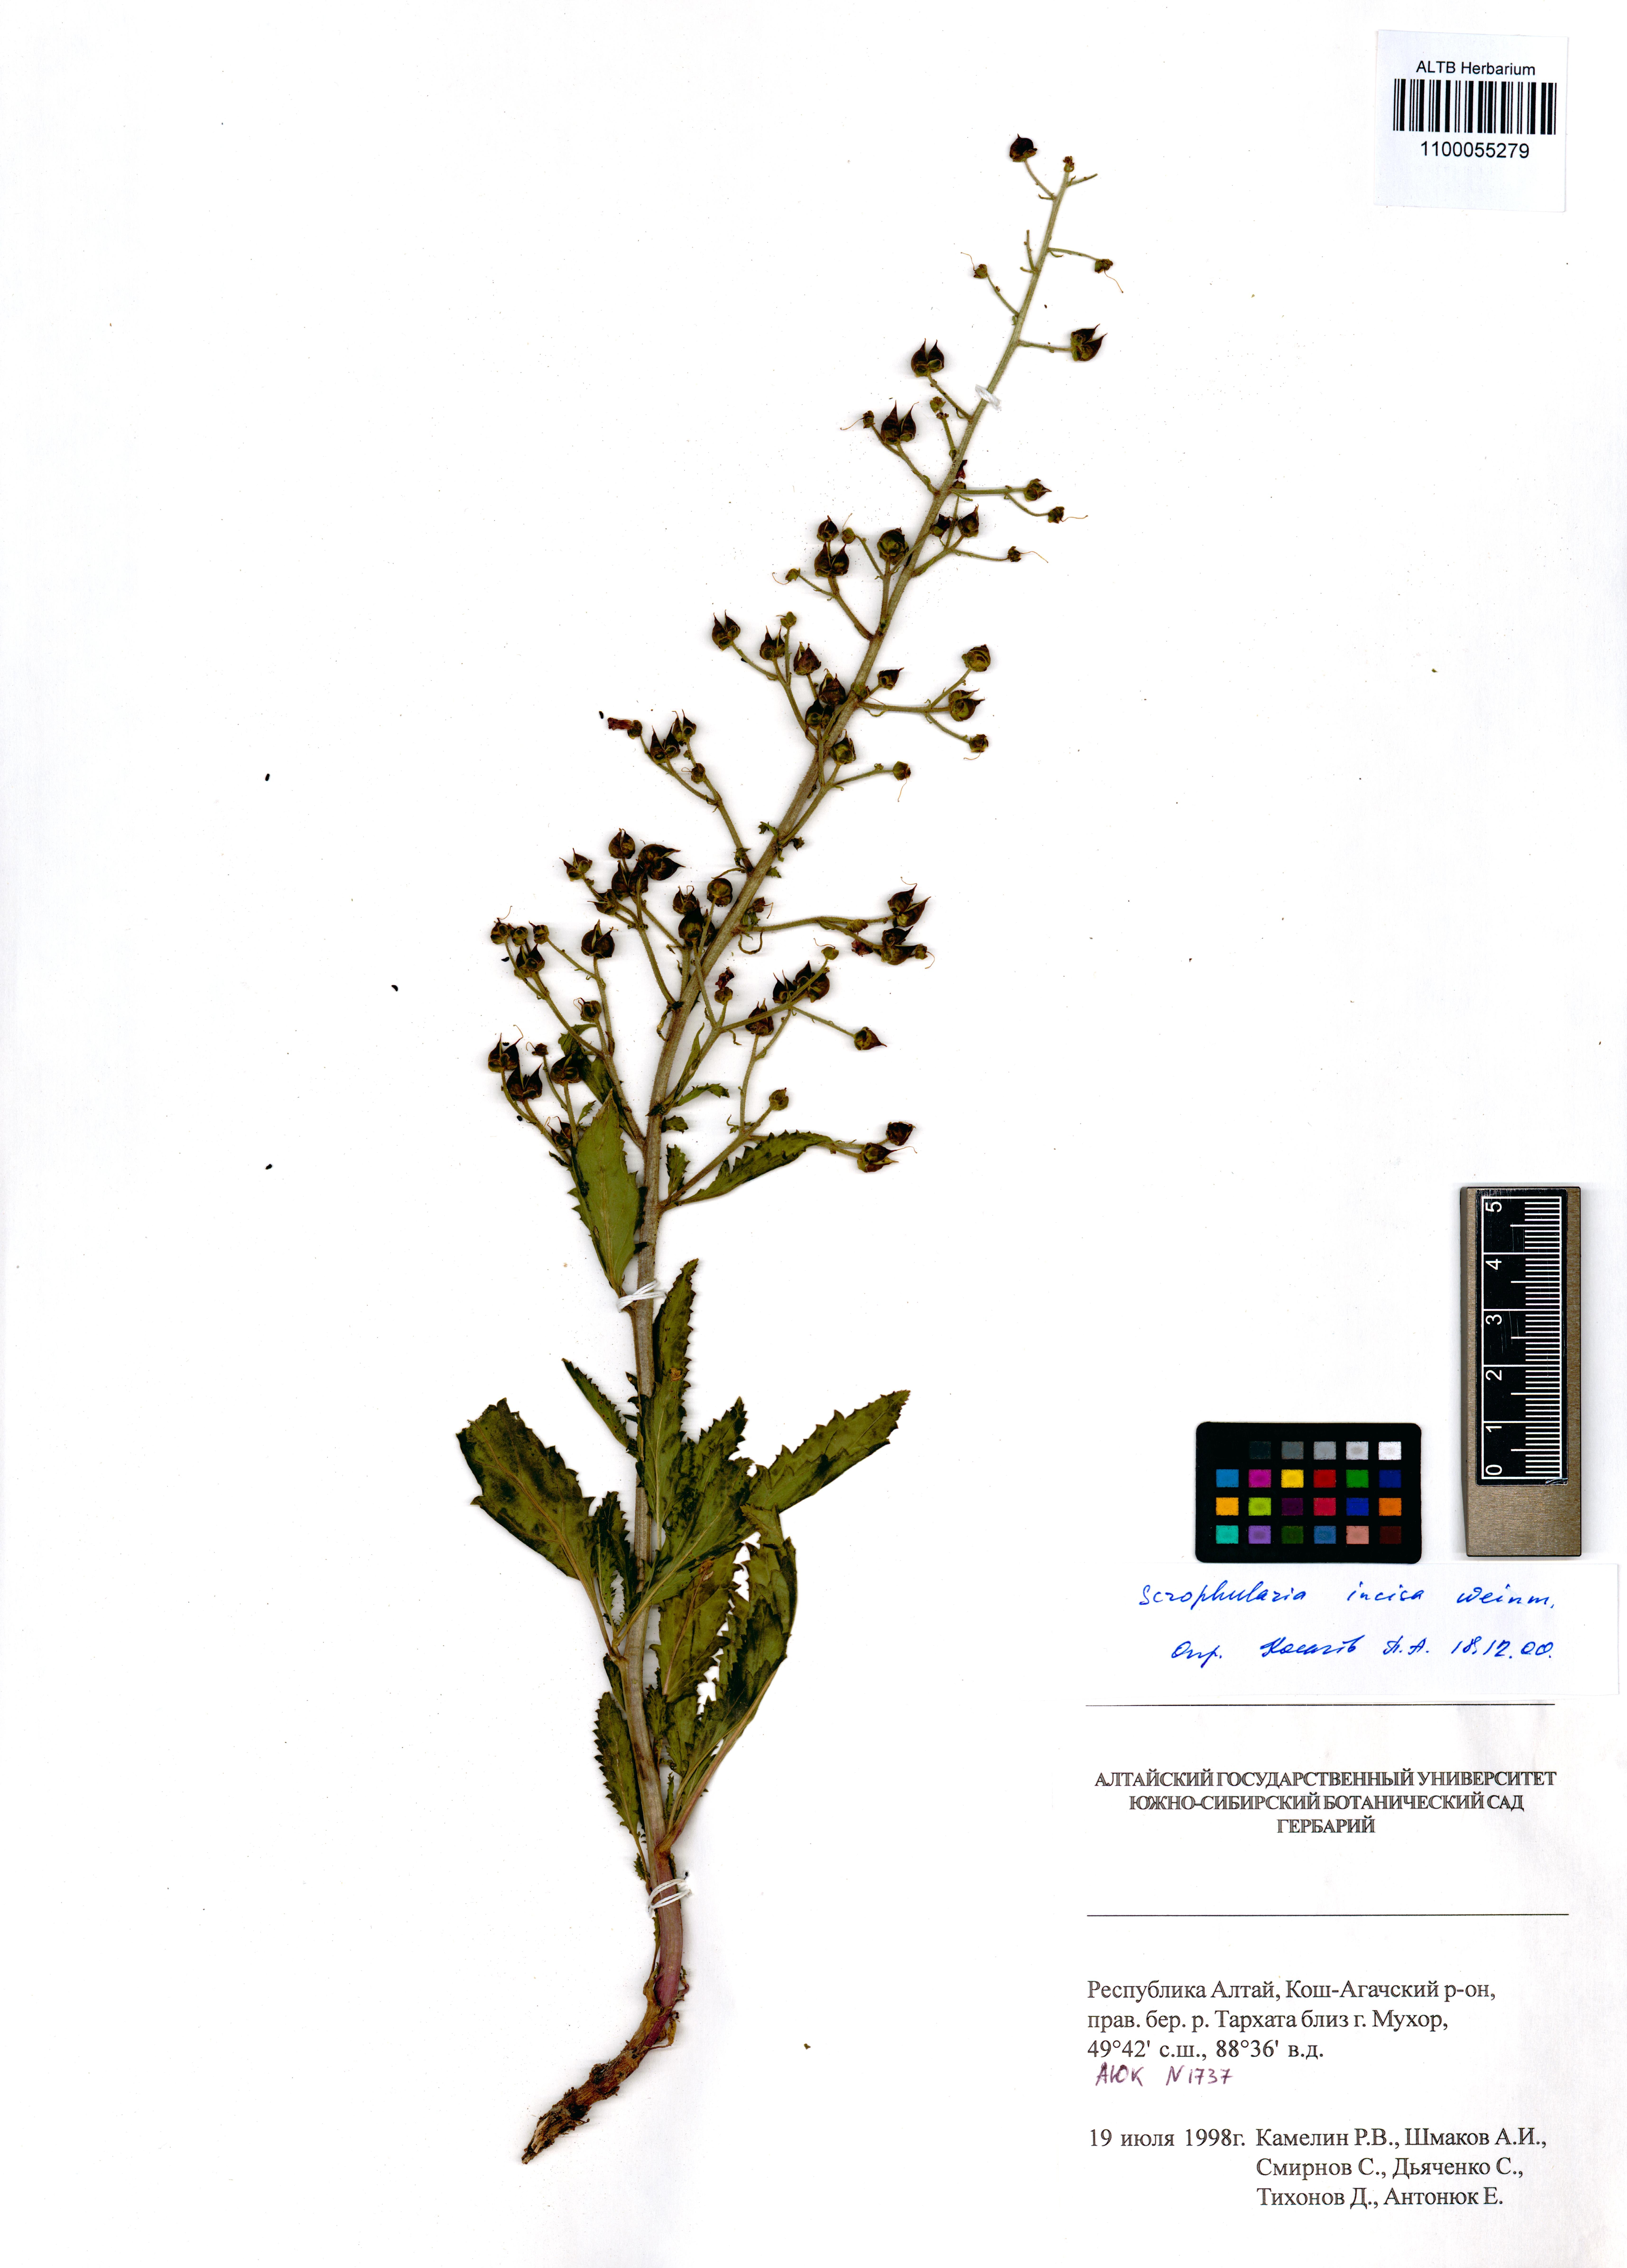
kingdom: Plantae
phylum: Tracheophyta
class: Magnoliopsida
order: Lamiales
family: Scrophulariaceae
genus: Scrophularia
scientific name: Scrophularia incisa
